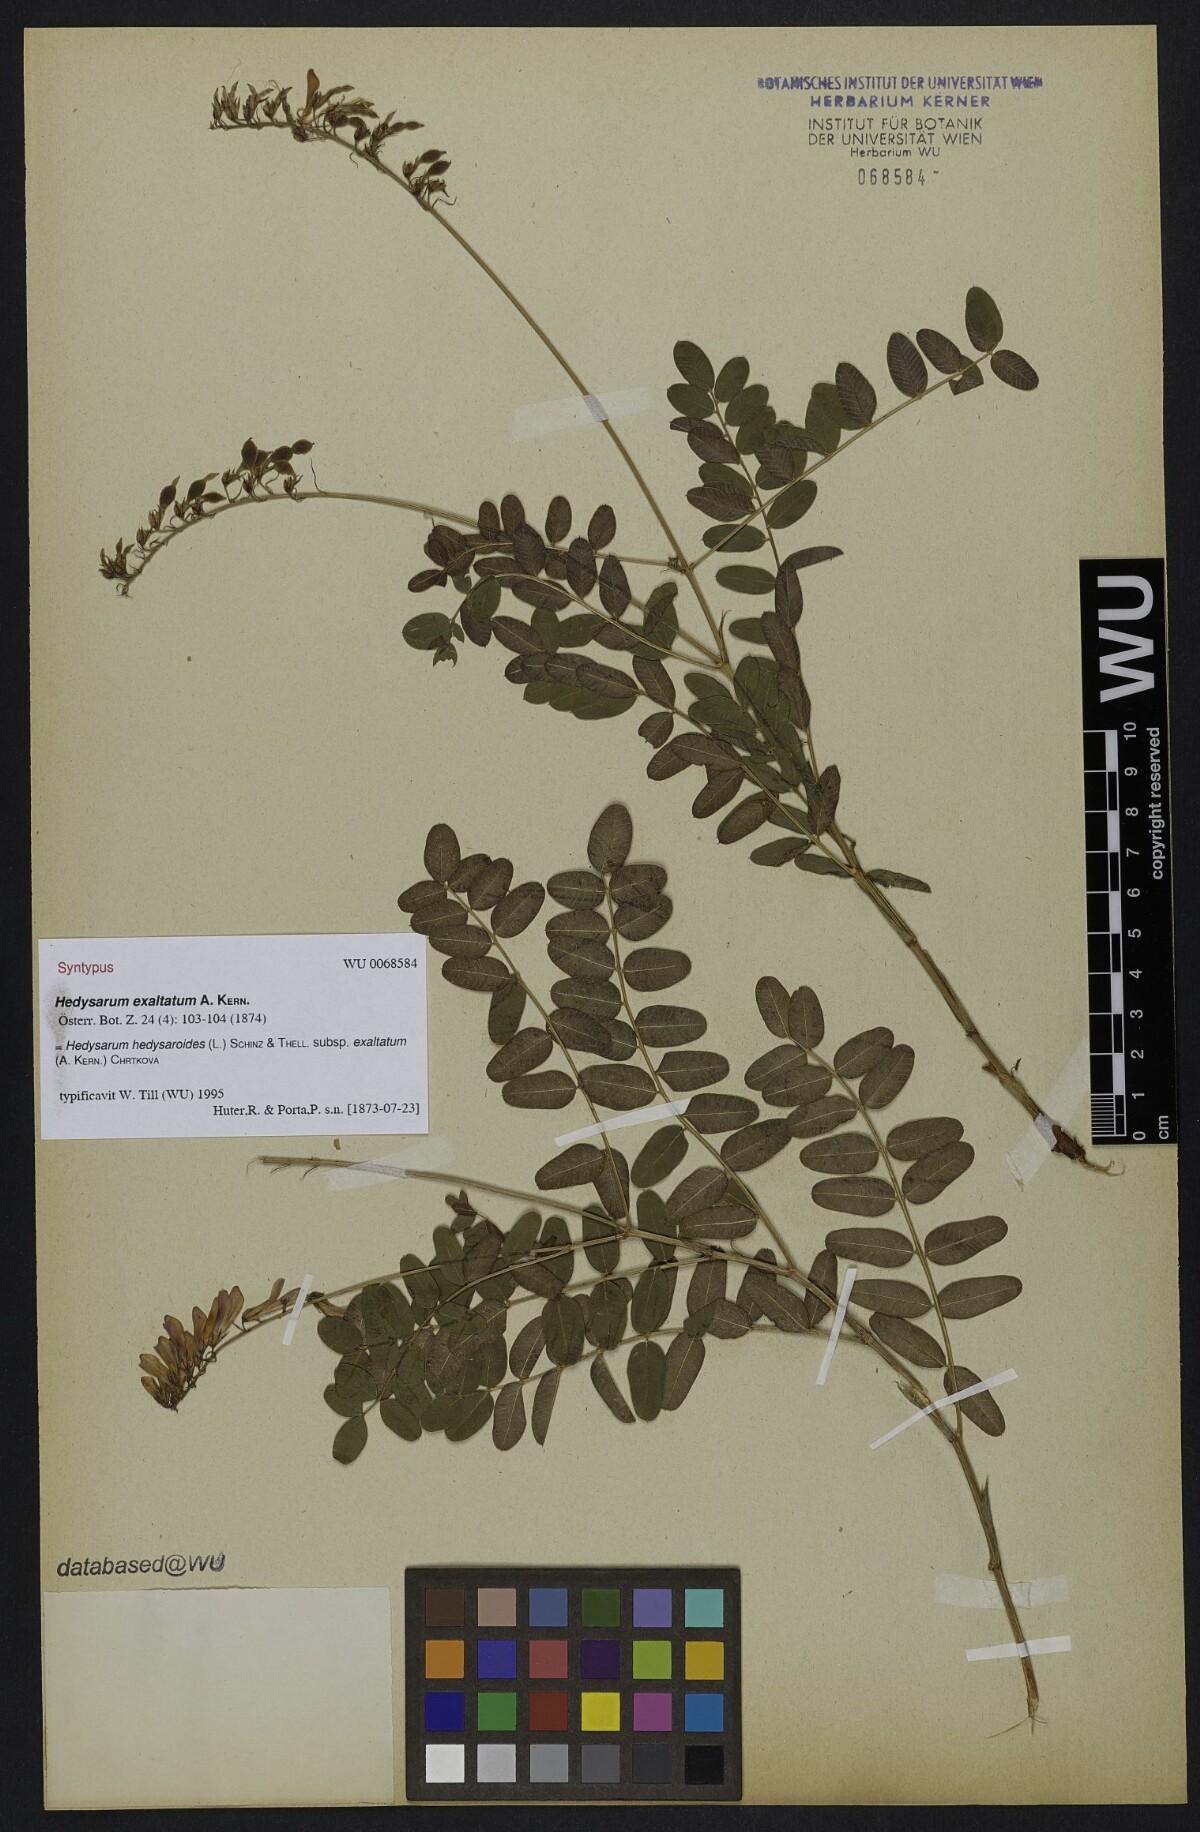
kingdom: Plantae
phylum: Tracheophyta
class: Magnoliopsida
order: Fabales
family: Fabaceae
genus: Hedysarum
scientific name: Hedysarum hedysaroides
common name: Alpine french-honeysuckle
